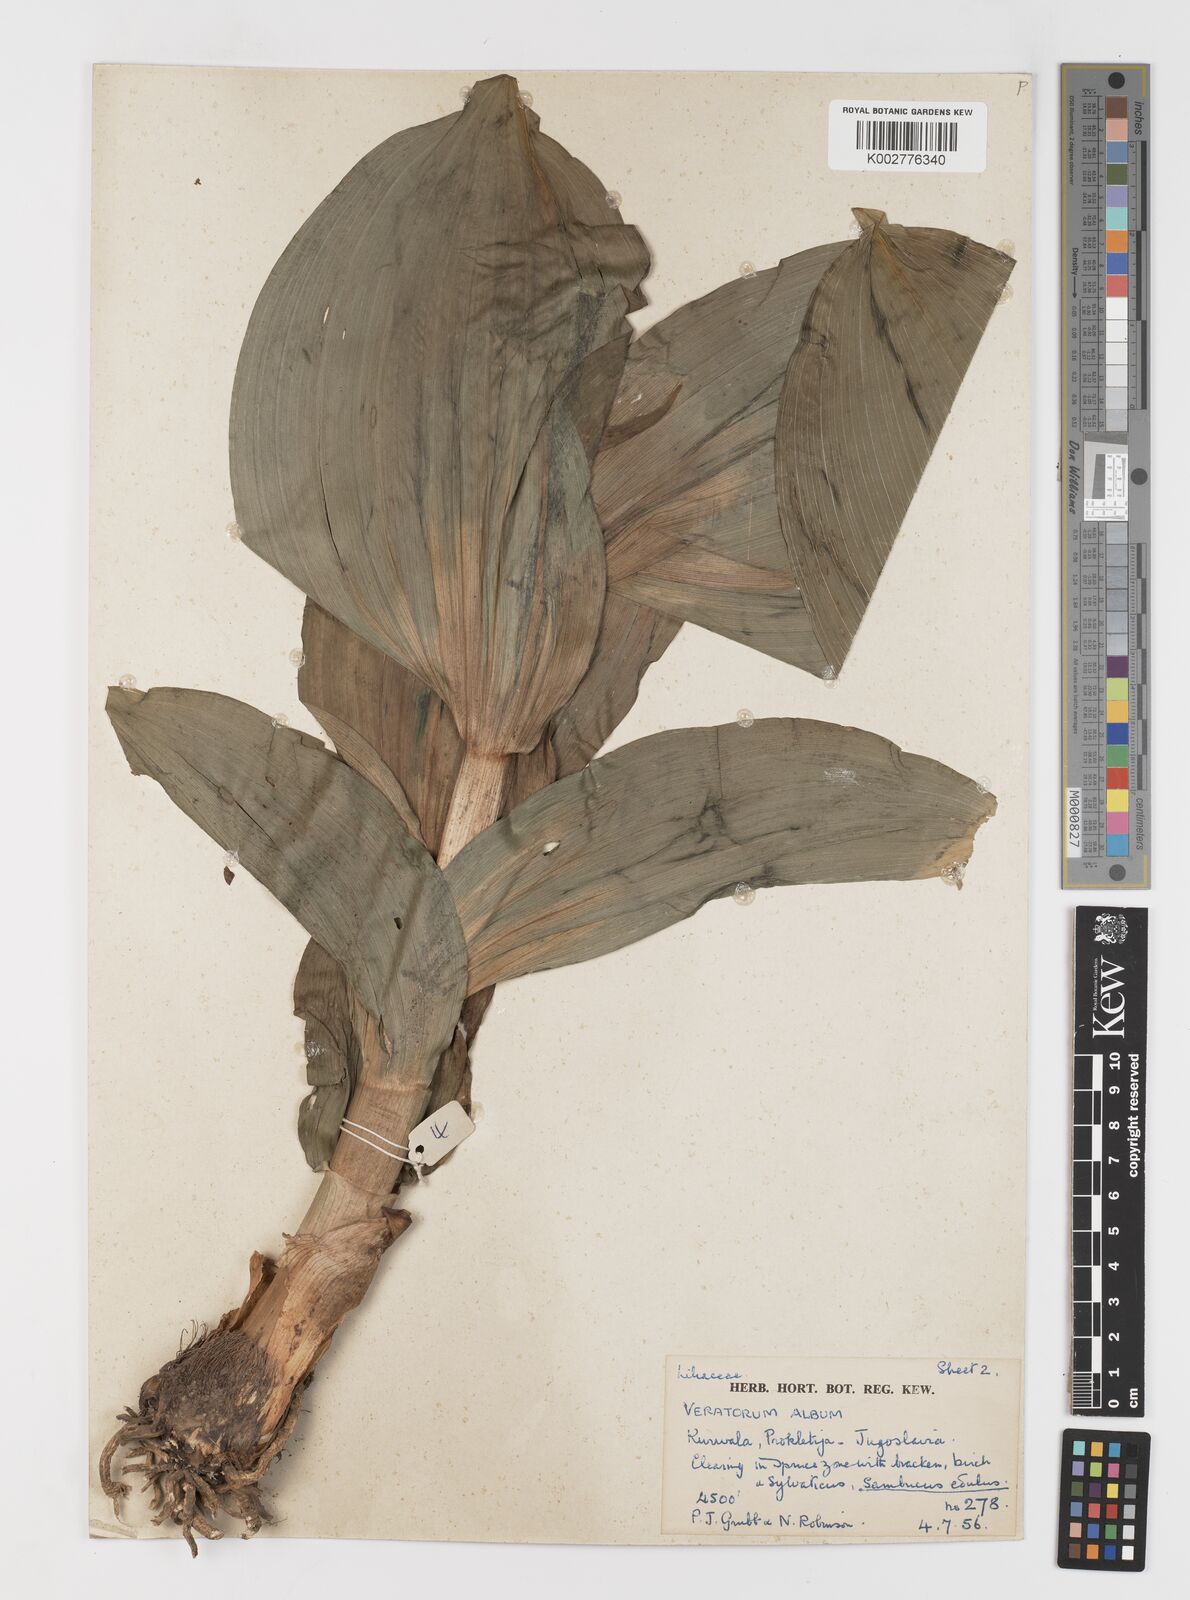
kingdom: Plantae
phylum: Tracheophyta
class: Liliopsida
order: Liliales
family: Melanthiaceae
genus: Veratrum
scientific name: Veratrum album
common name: White veratrum
